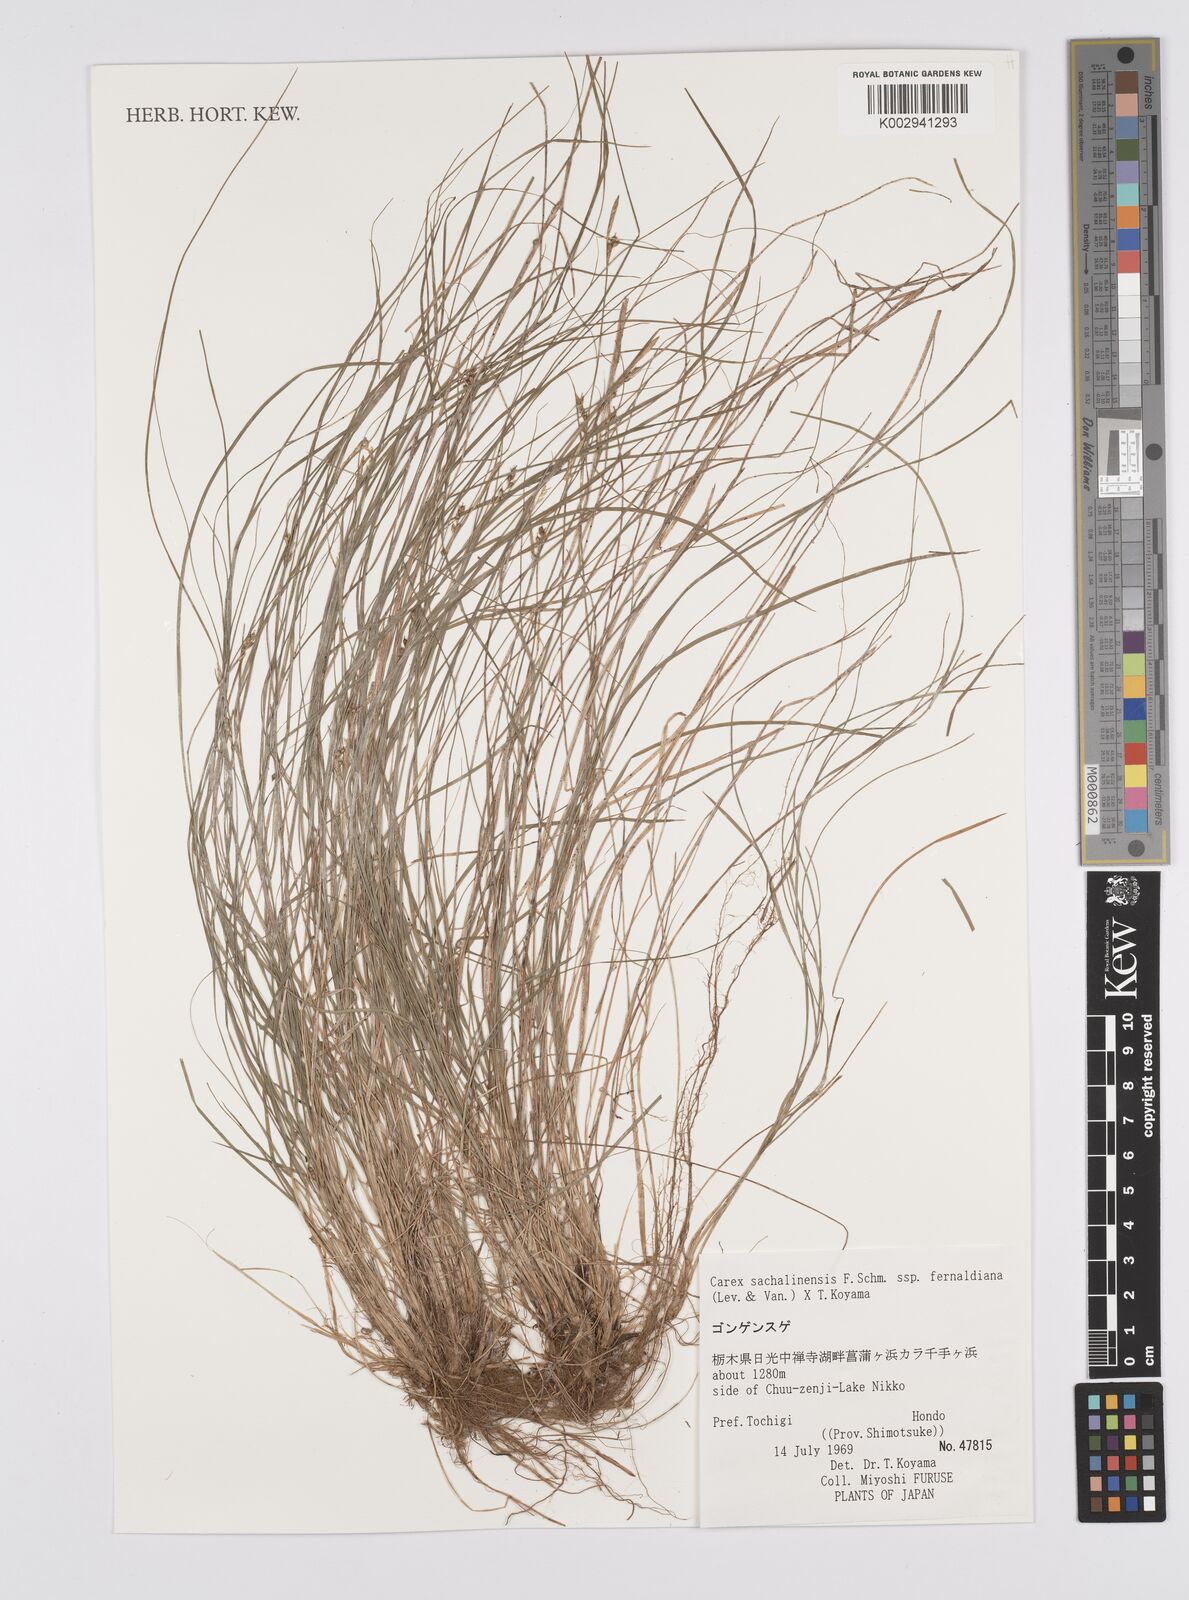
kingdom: Plantae
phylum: Tracheophyta
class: Liliopsida
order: Poales
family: Cyperaceae
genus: Carex
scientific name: Carex pisiformis
